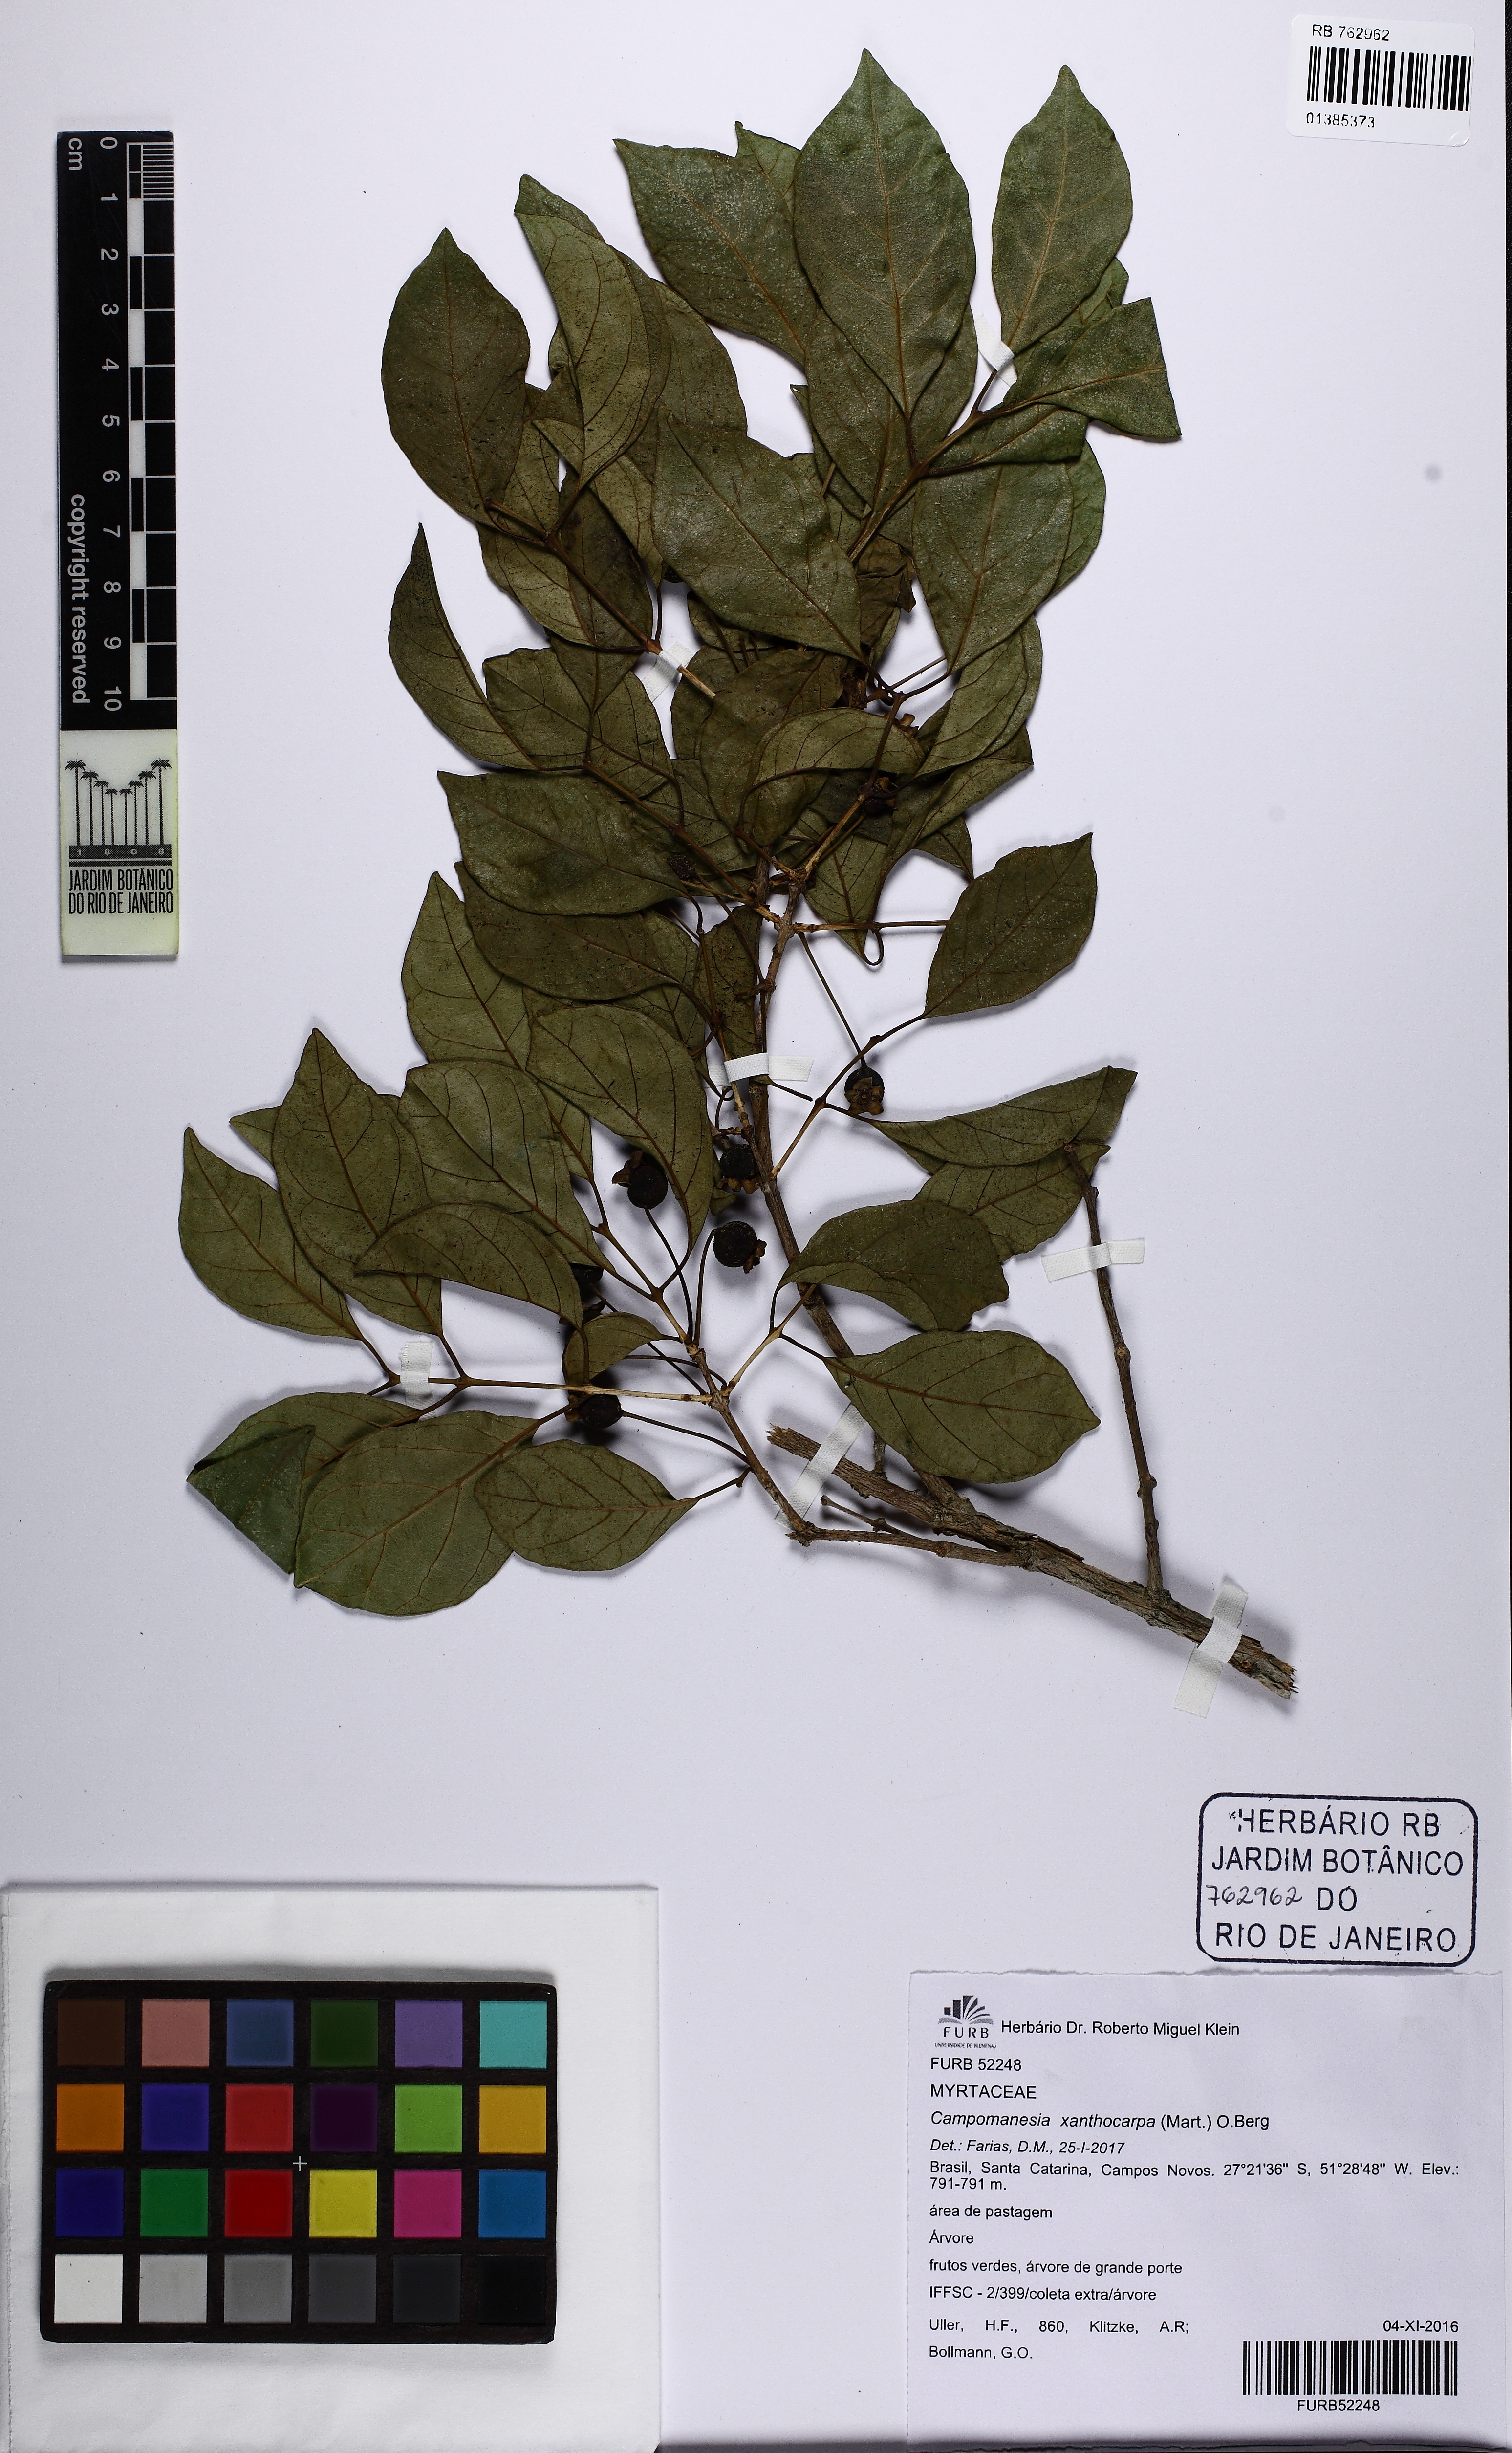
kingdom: Plantae
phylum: Tracheophyta
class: Magnoliopsida
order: Myrtales
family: Myrtaceae
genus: Campomanesia
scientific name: Campomanesia xanthocarpa
